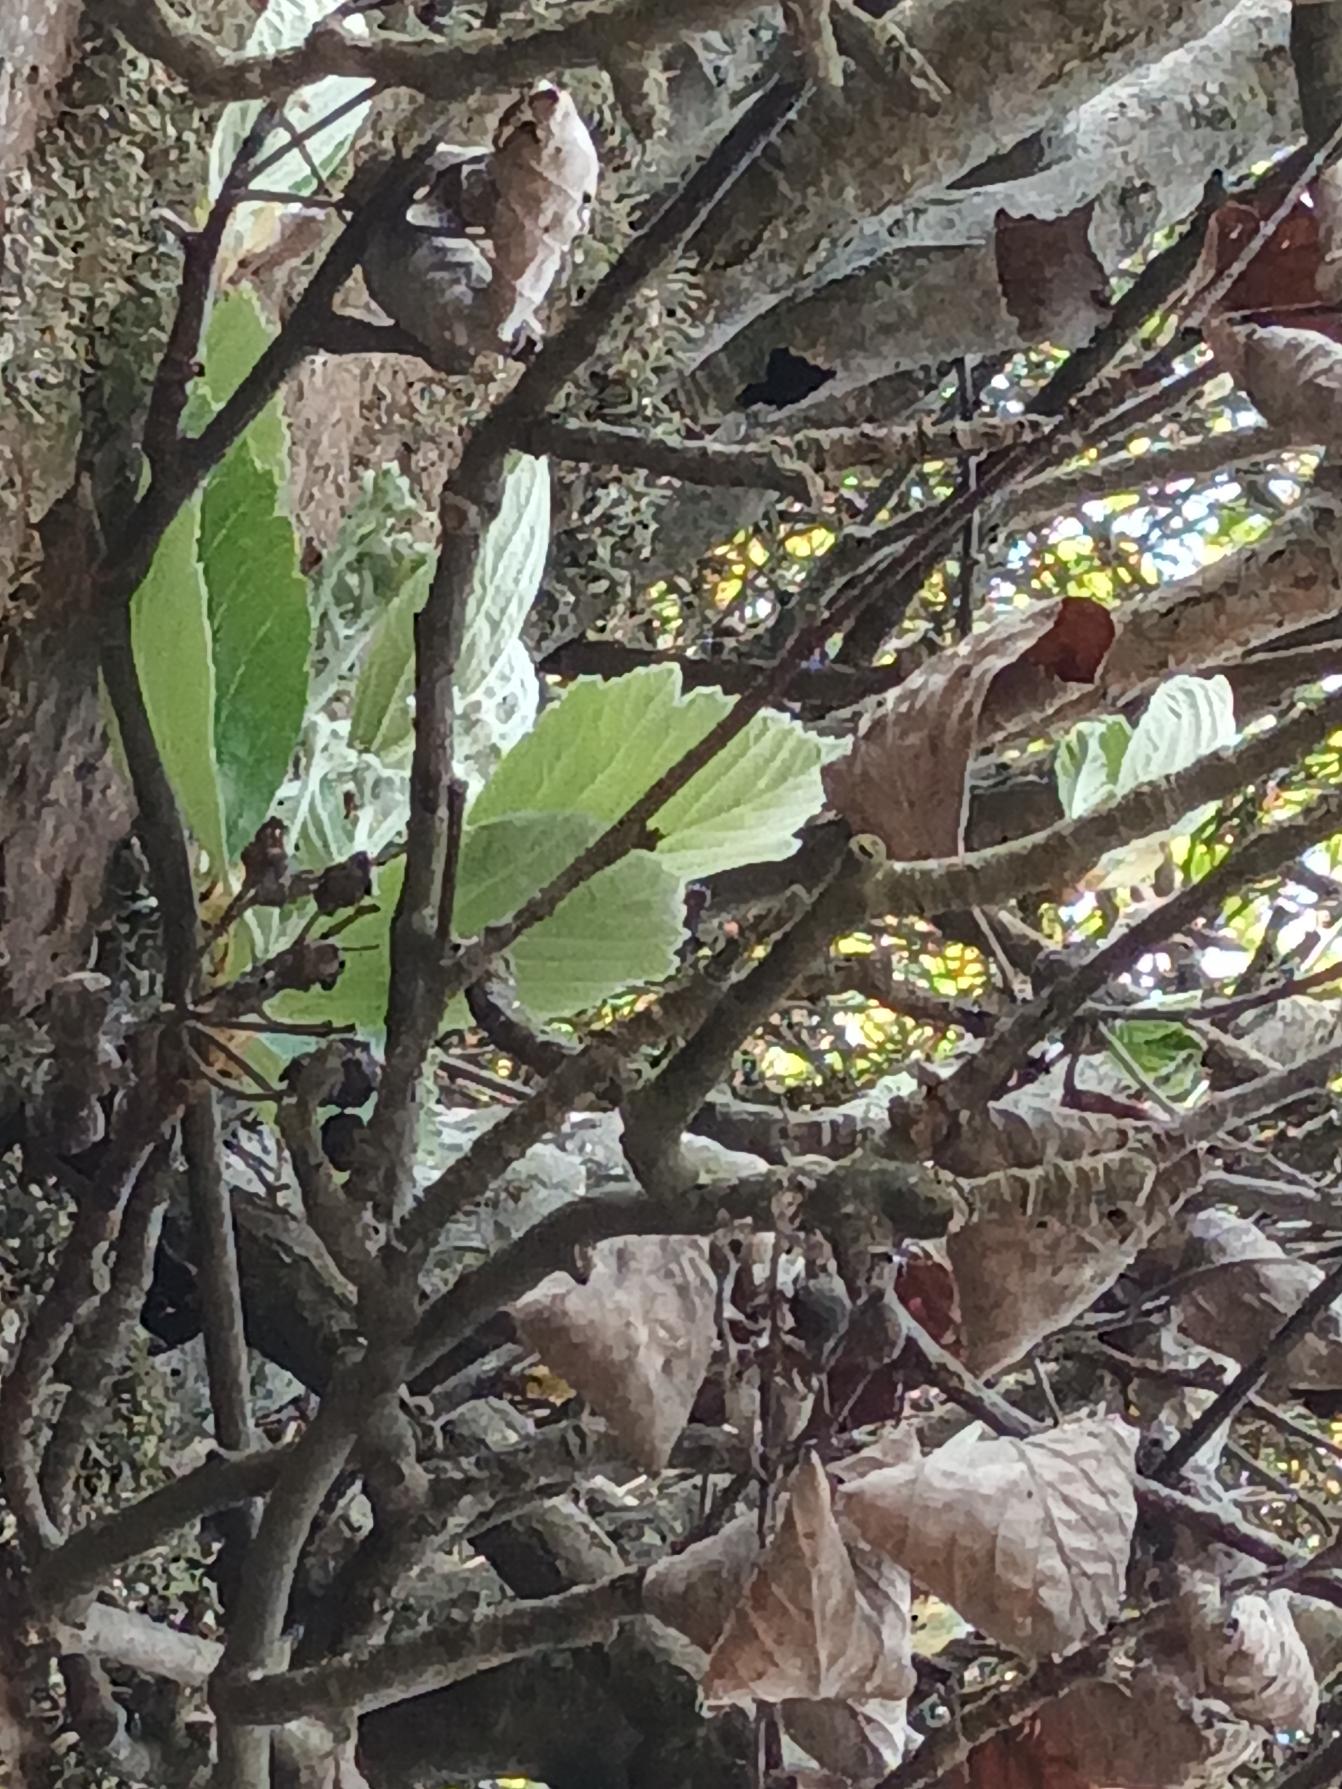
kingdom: Plantae
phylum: Tracheophyta
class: Magnoliopsida
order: Rosales
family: Rosaceae
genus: Aria
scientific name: Aria rupicola
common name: Klippe-røn
